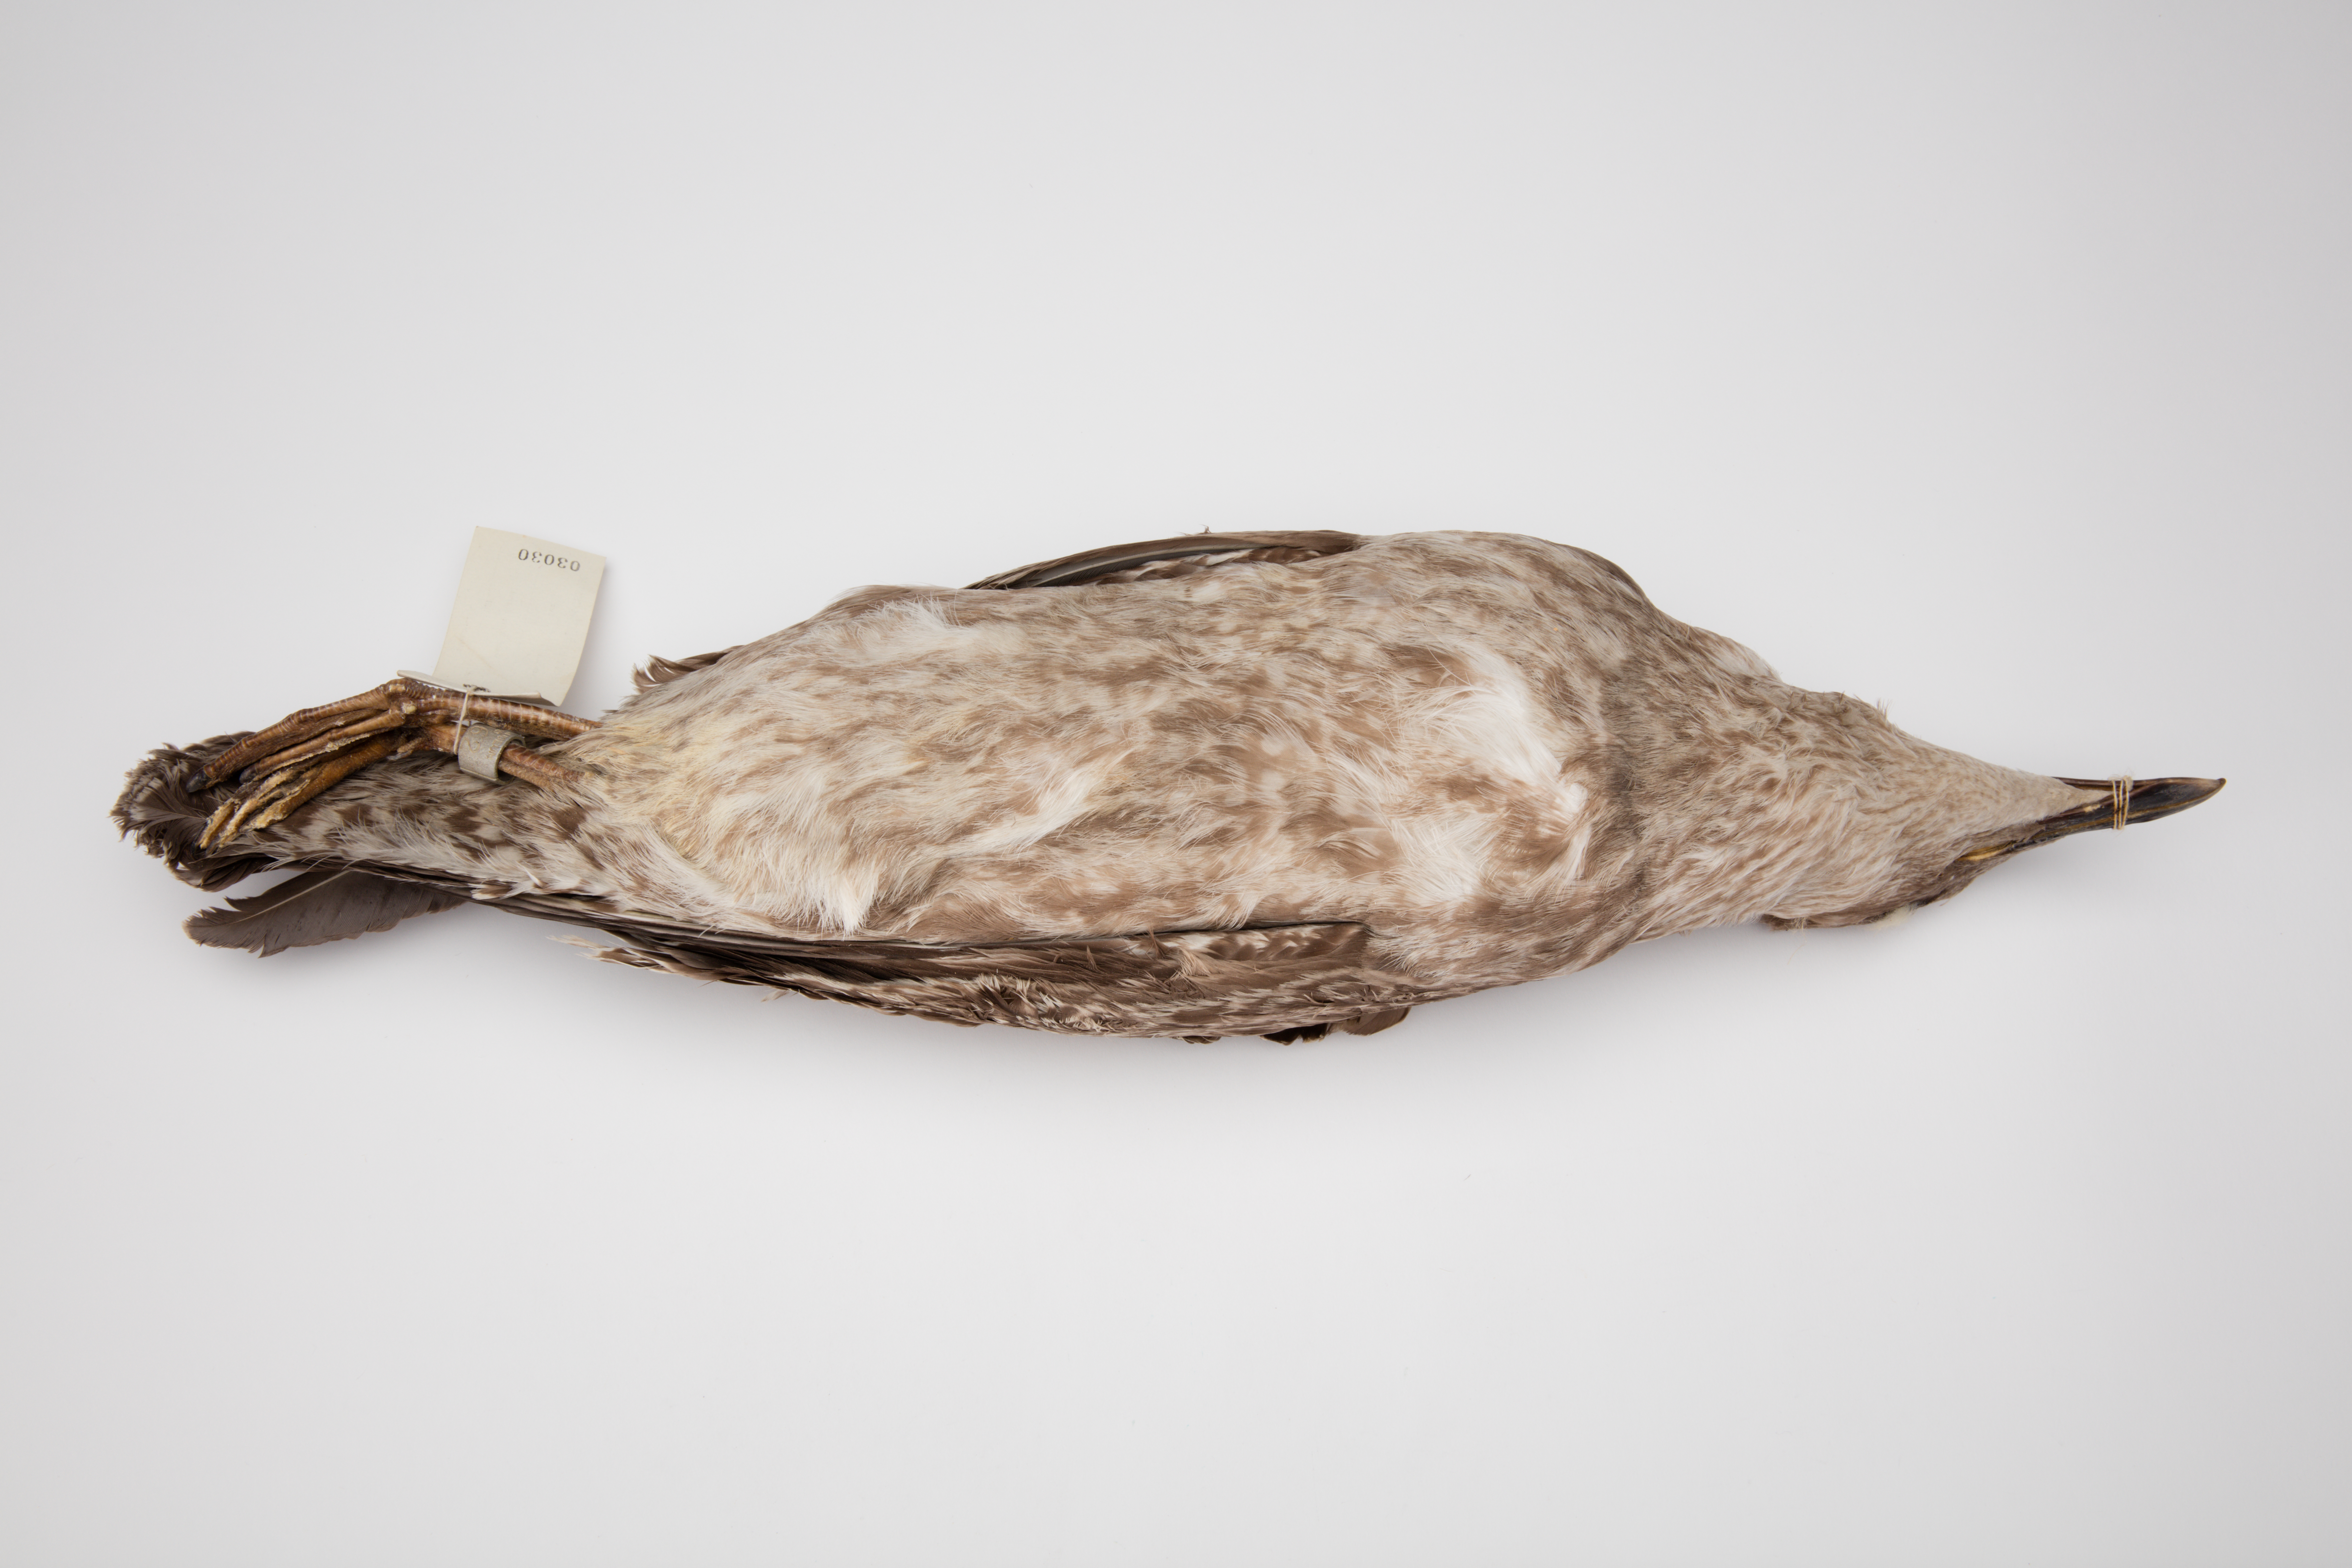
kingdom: Animalia
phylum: Chordata
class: Aves
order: Charadriiformes
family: Laridae
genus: Larus
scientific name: Larus dominicanus
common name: Kelp gull
